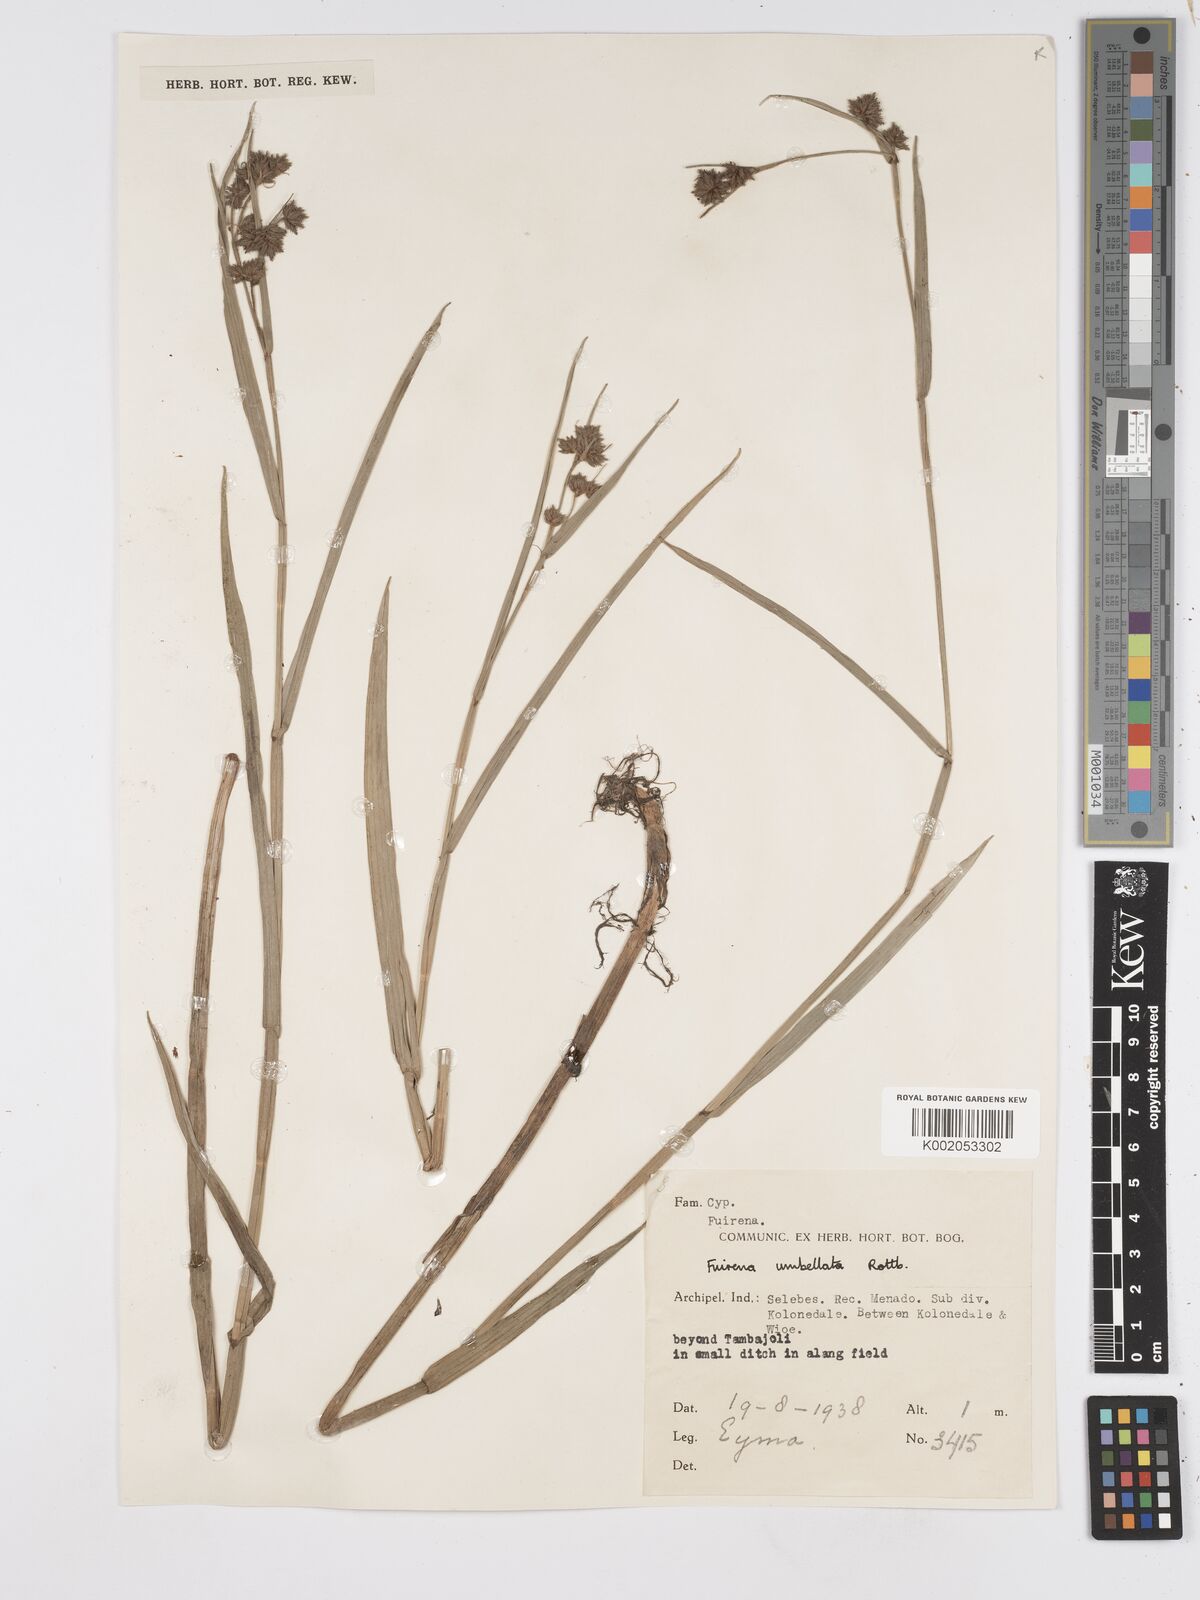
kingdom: Plantae
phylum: Tracheophyta
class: Liliopsida
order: Poales
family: Cyperaceae
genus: Fuirena
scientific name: Fuirena umbellata
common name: Yefen
